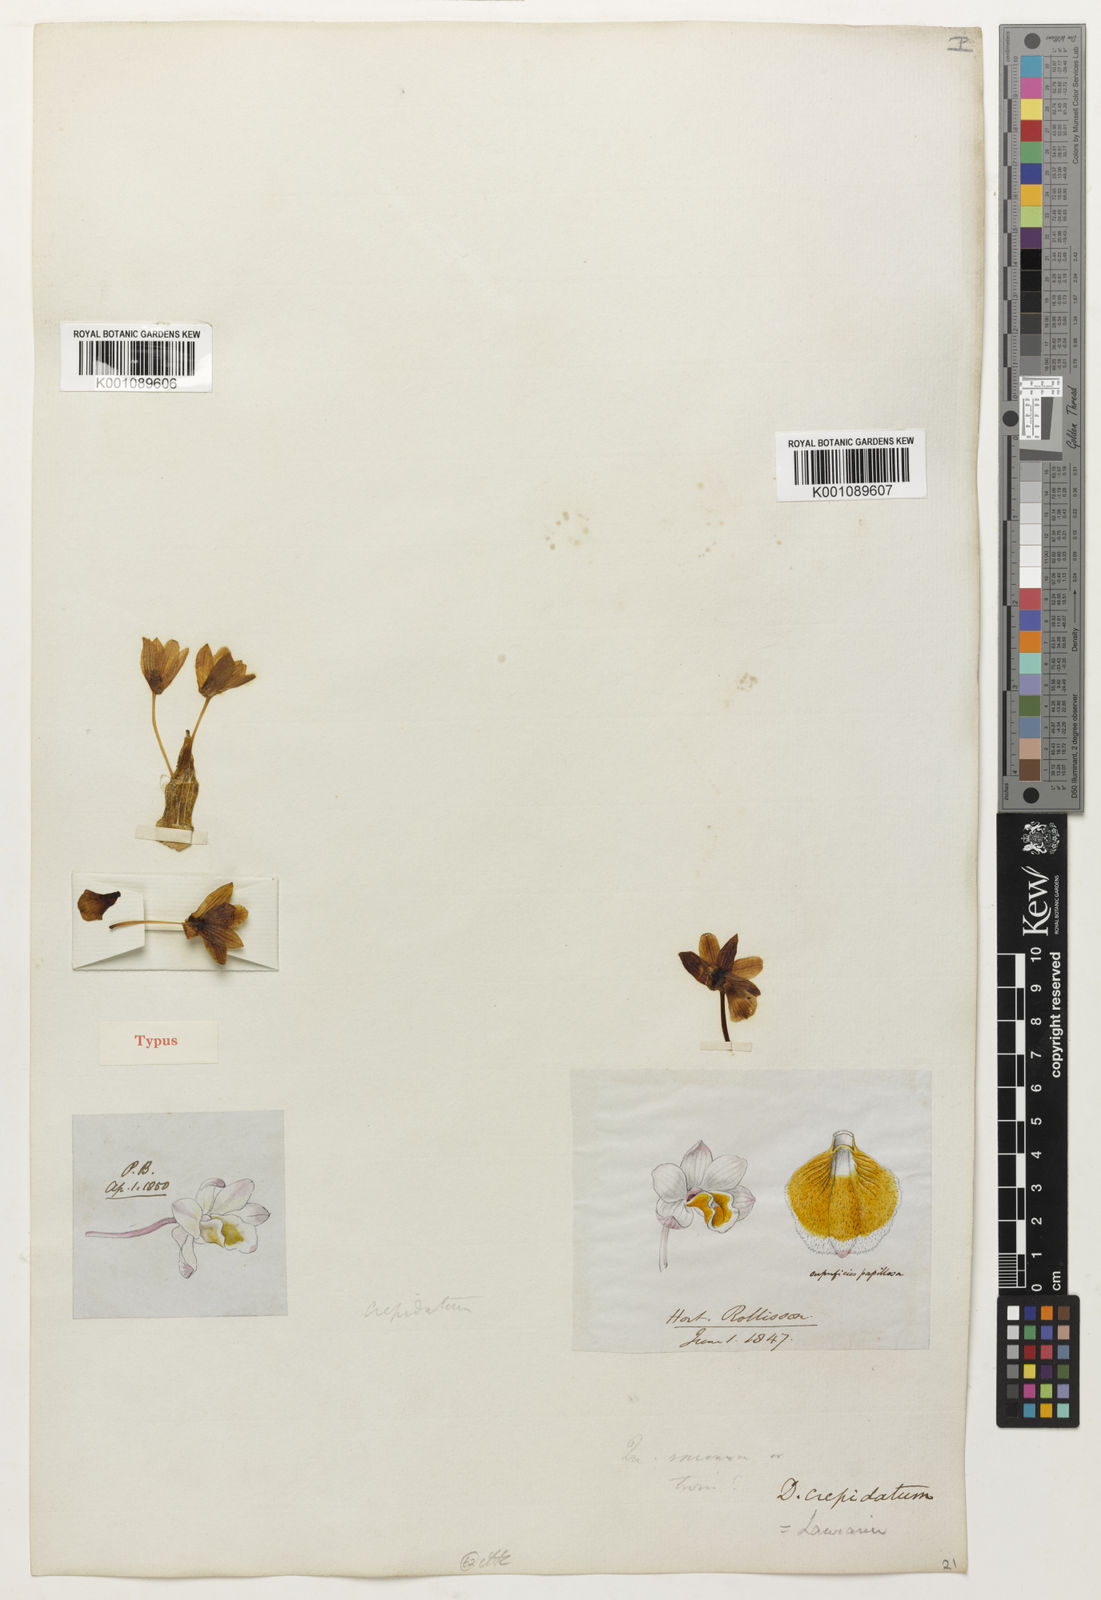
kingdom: Plantae
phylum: Tracheophyta
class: Liliopsida
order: Asparagales
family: Orchidaceae
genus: Dendrobium
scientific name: Dendrobium crepidatum
